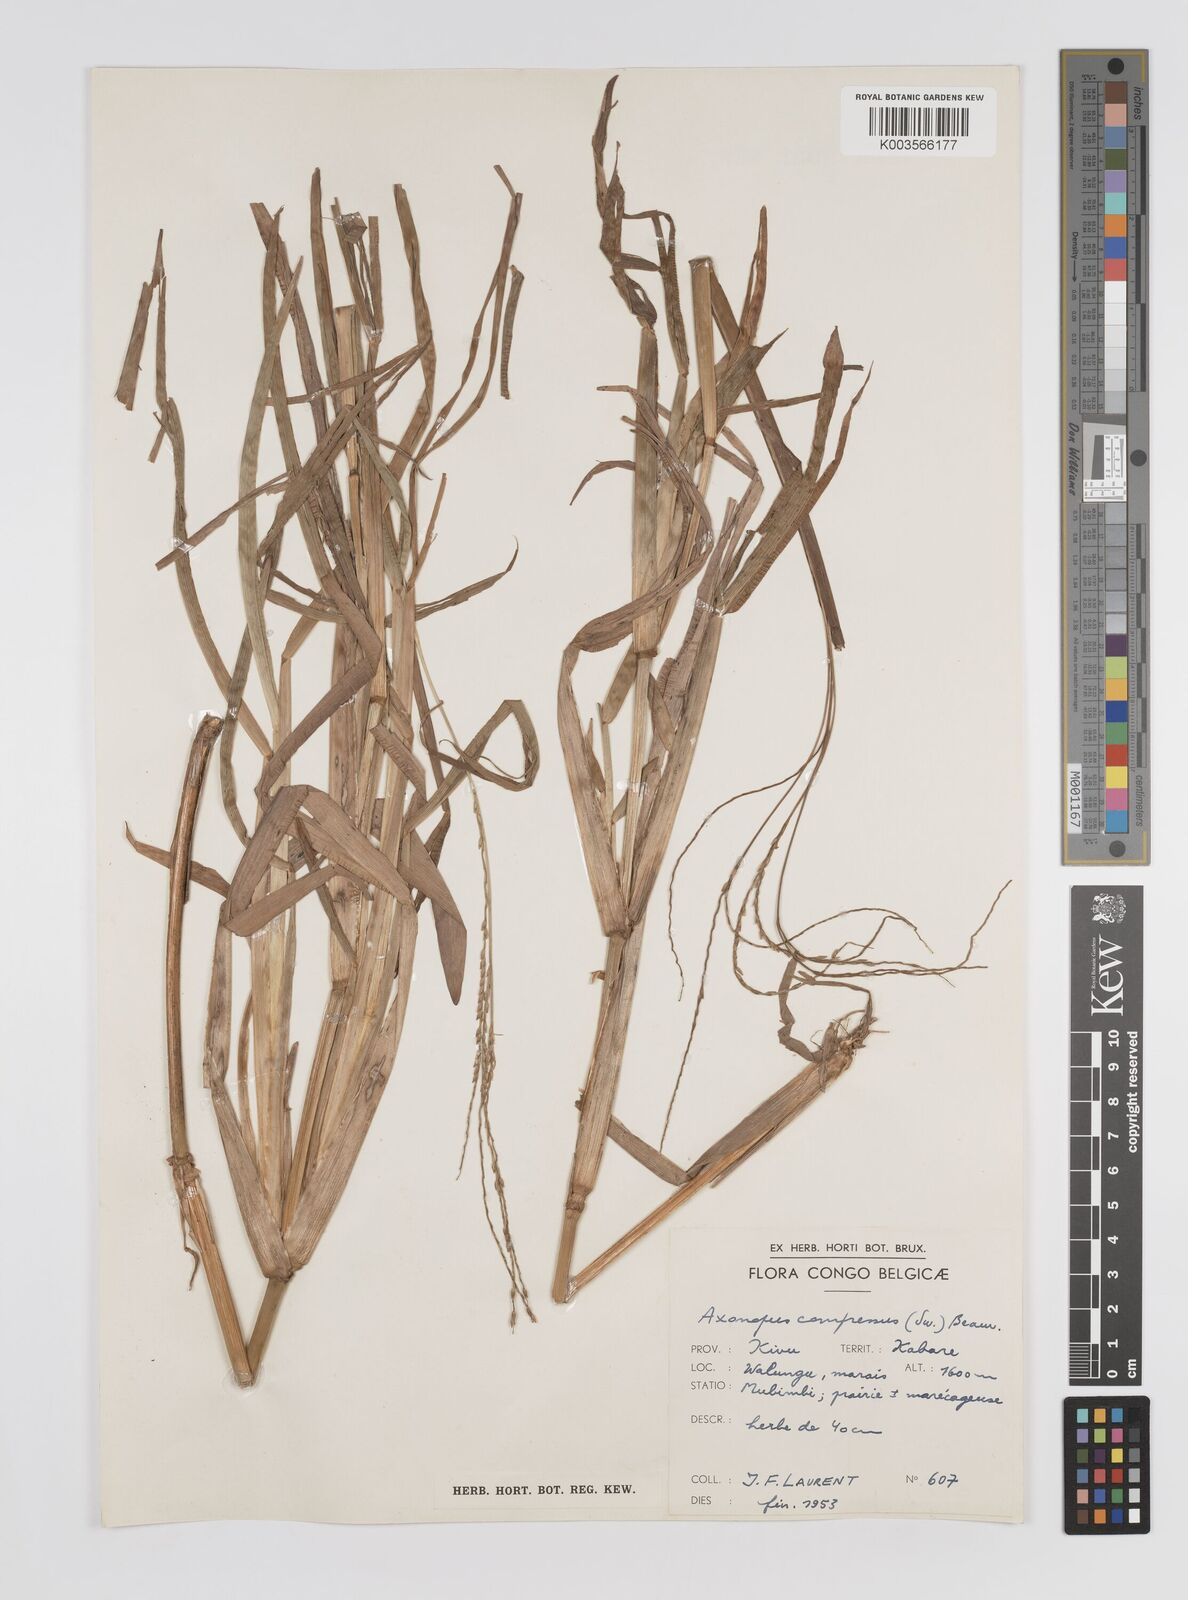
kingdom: Plantae
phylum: Tracheophyta
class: Liliopsida
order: Poales
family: Poaceae
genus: Axonopus
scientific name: Axonopus flexuosus
